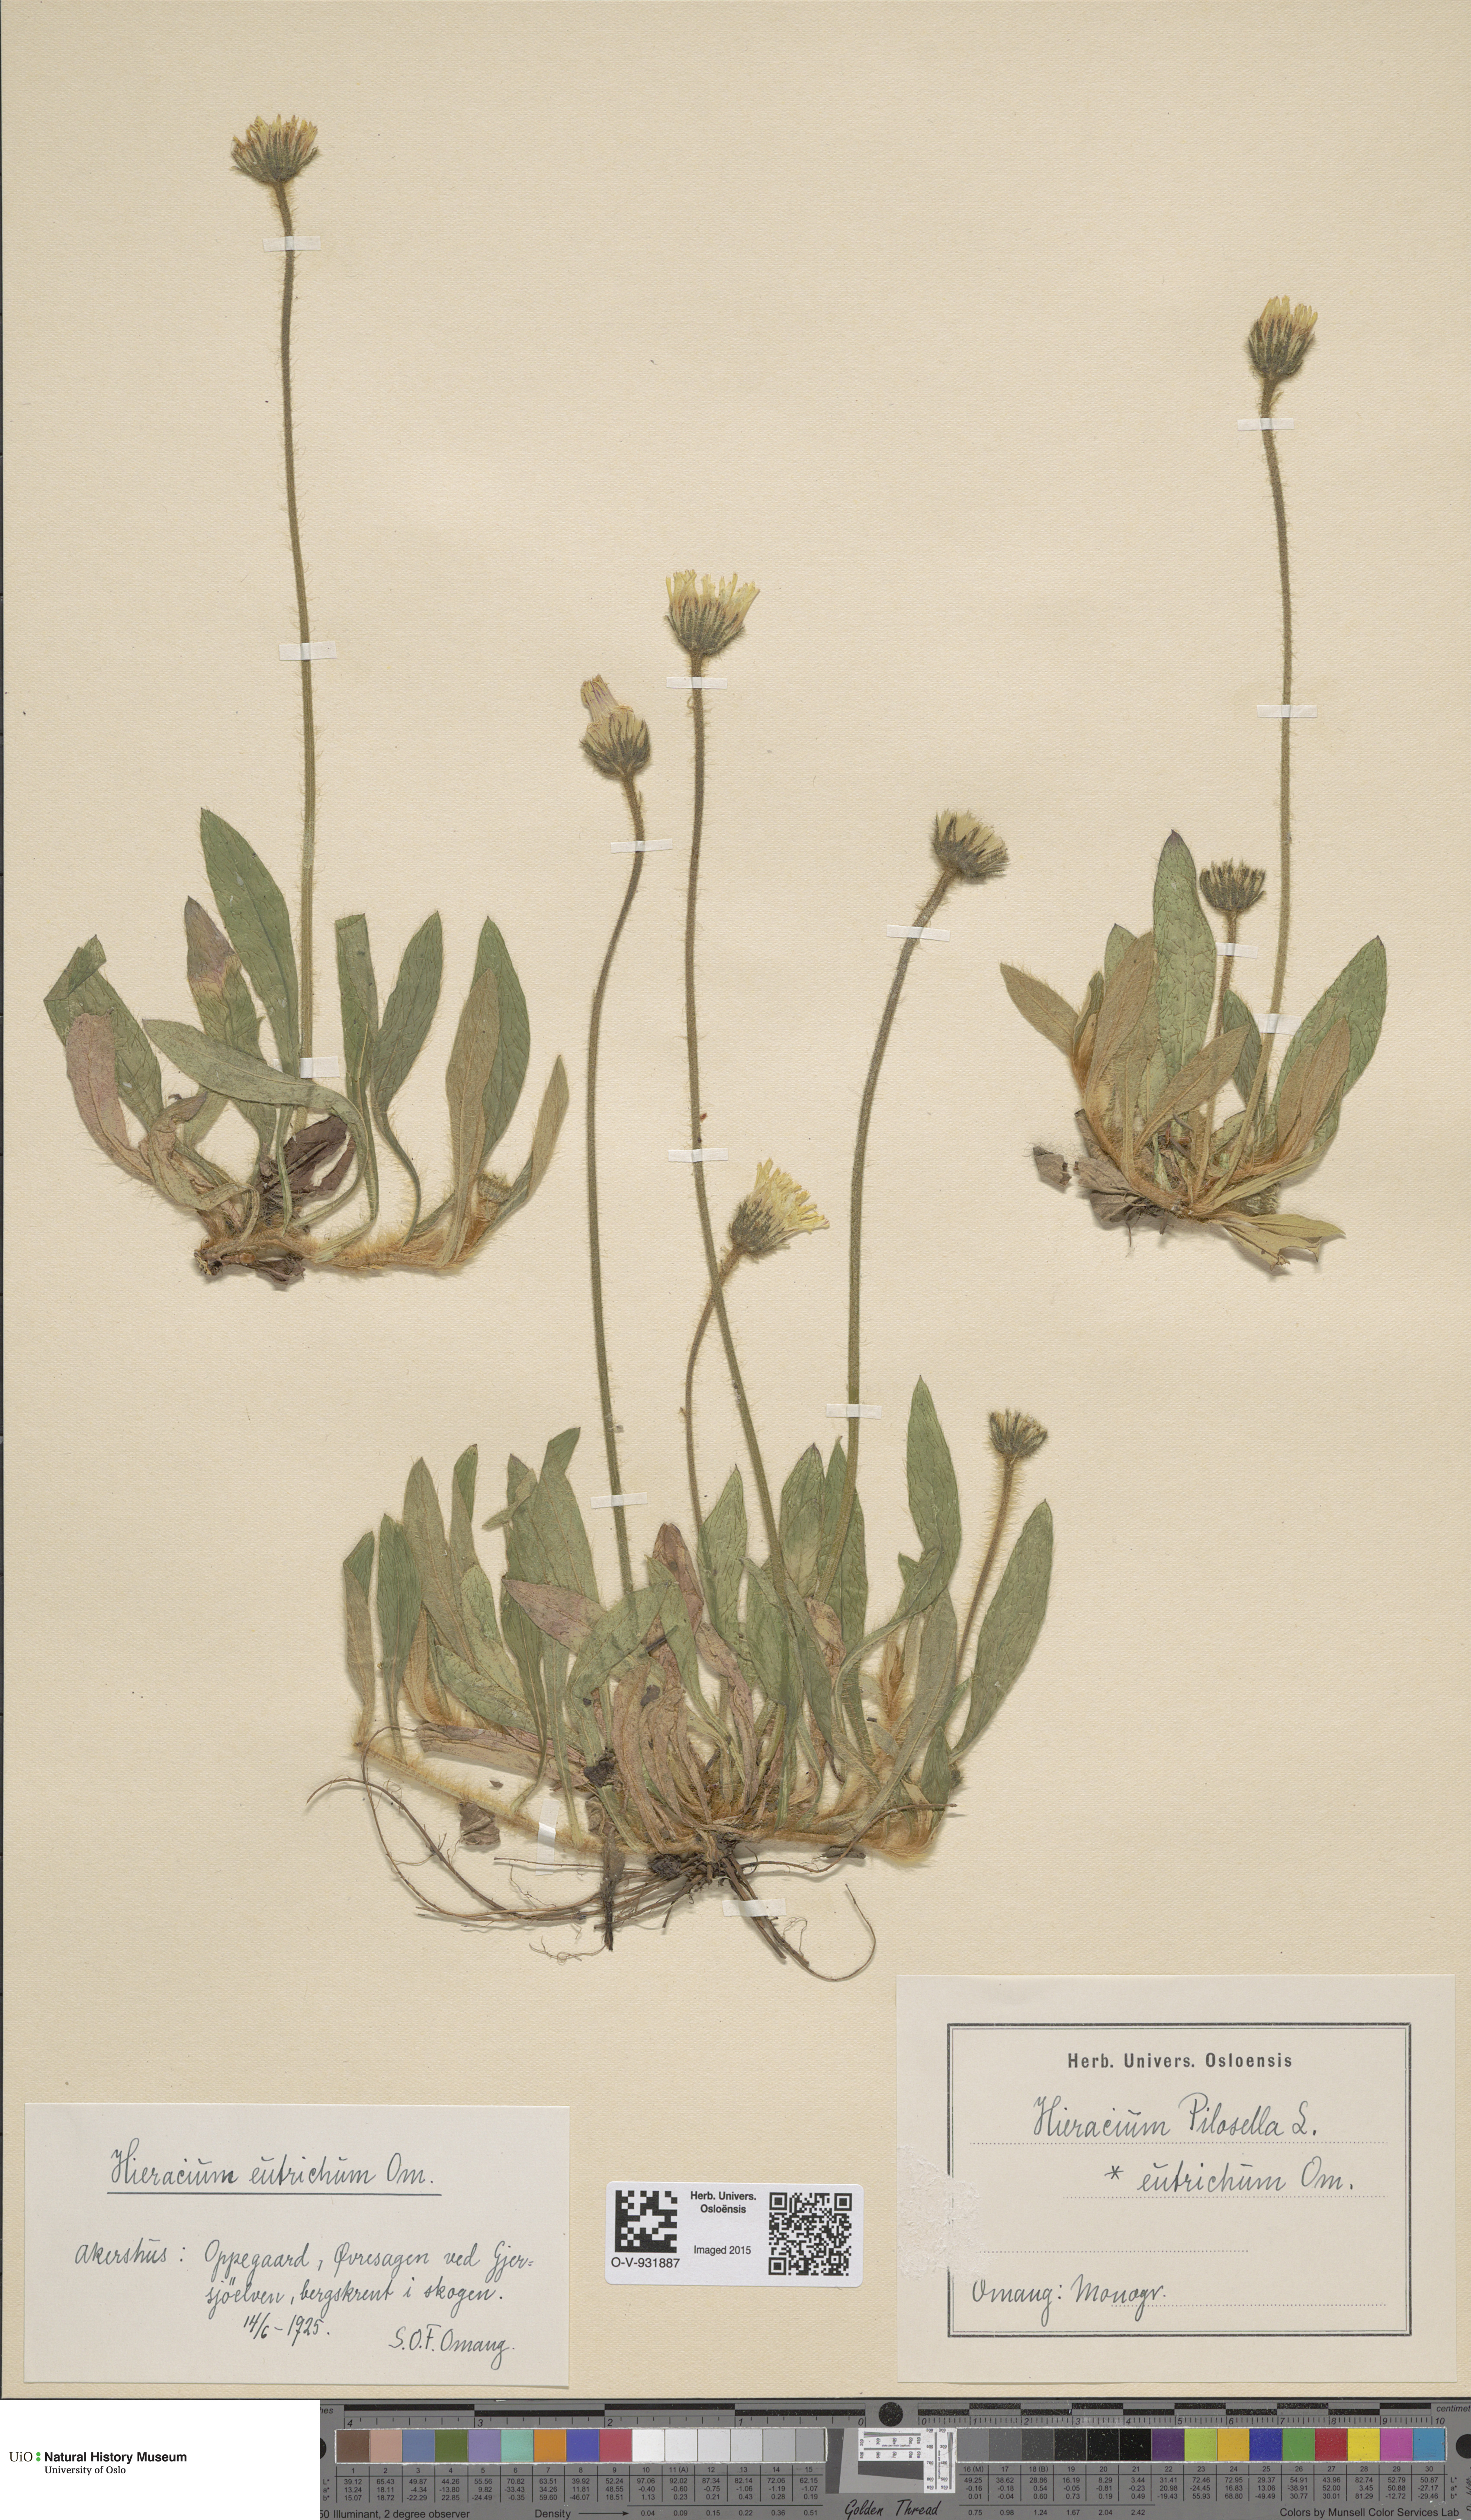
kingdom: Plantae
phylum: Tracheophyta
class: Magnoliopsida
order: Asterales
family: Asteraceae
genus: Pilosella
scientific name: Pilosella officinarum
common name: Mouse-ear hawkweed
